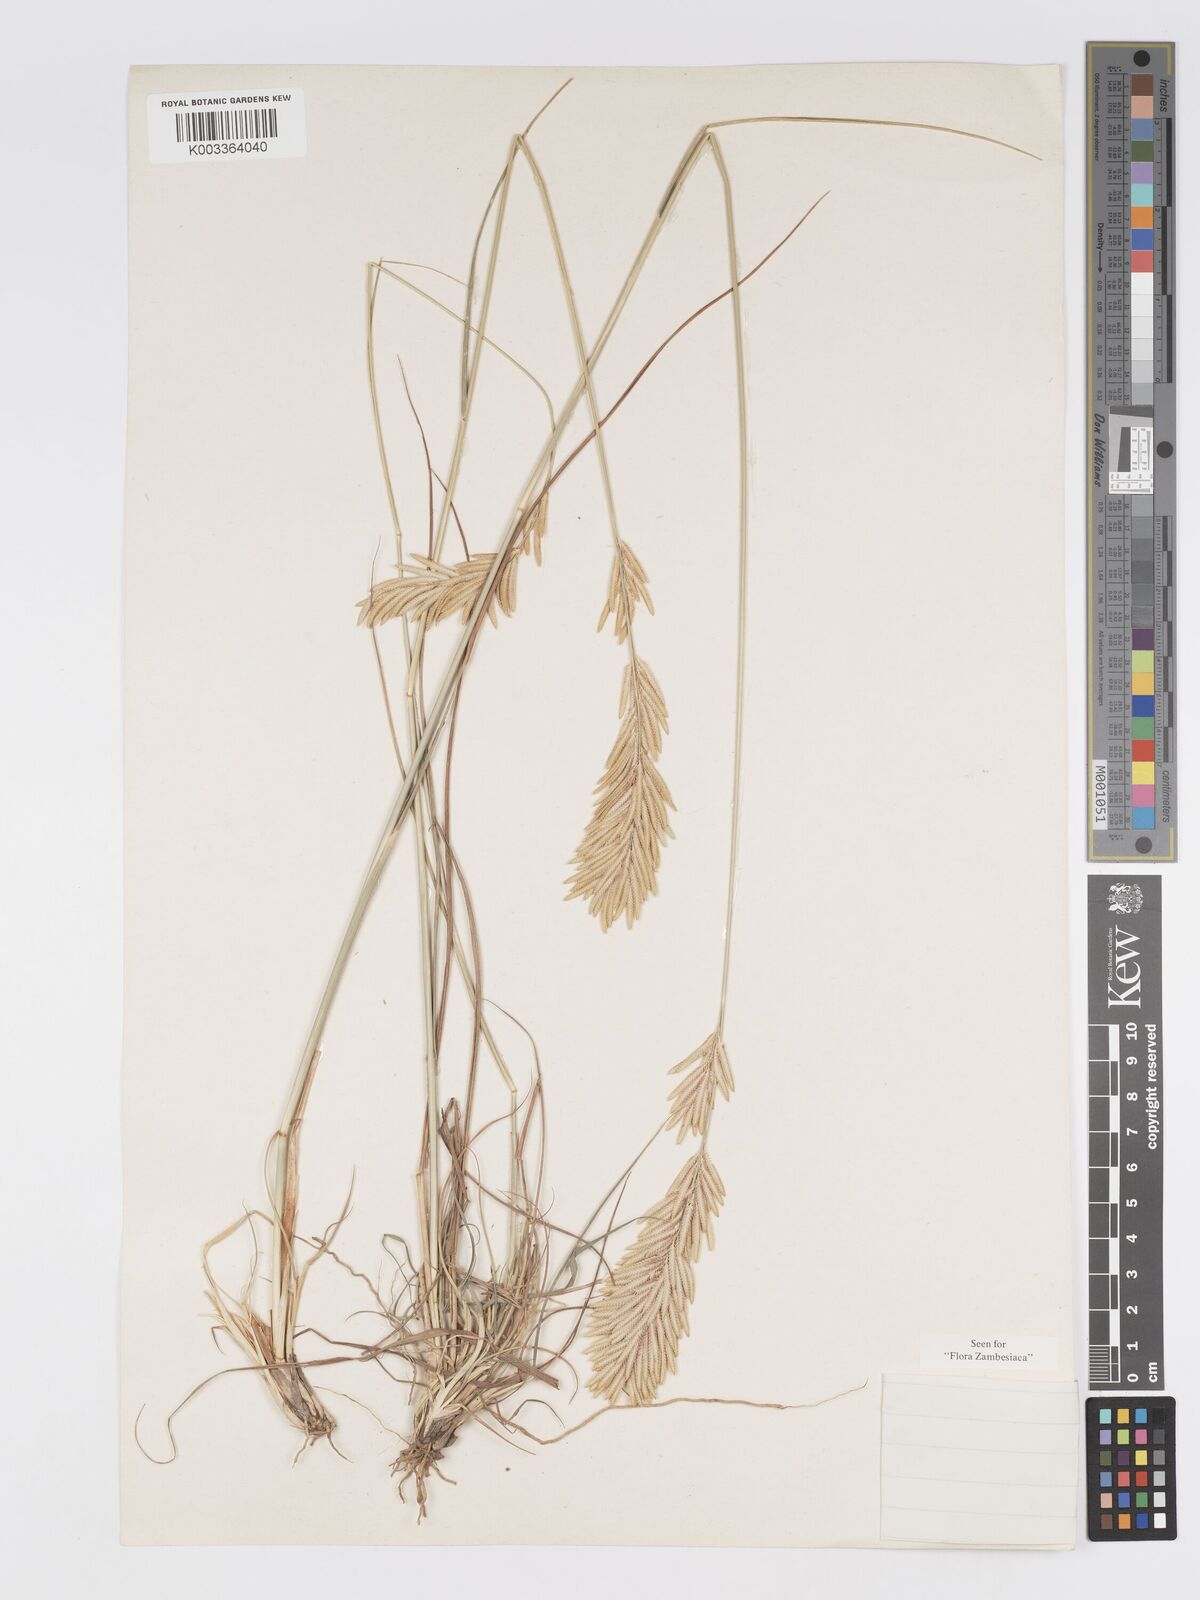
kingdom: Plantae
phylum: Tracheophyta
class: Liliopsida
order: Poales
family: Poaceae
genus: Eragrostis
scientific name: Eragrostis chapelieri
